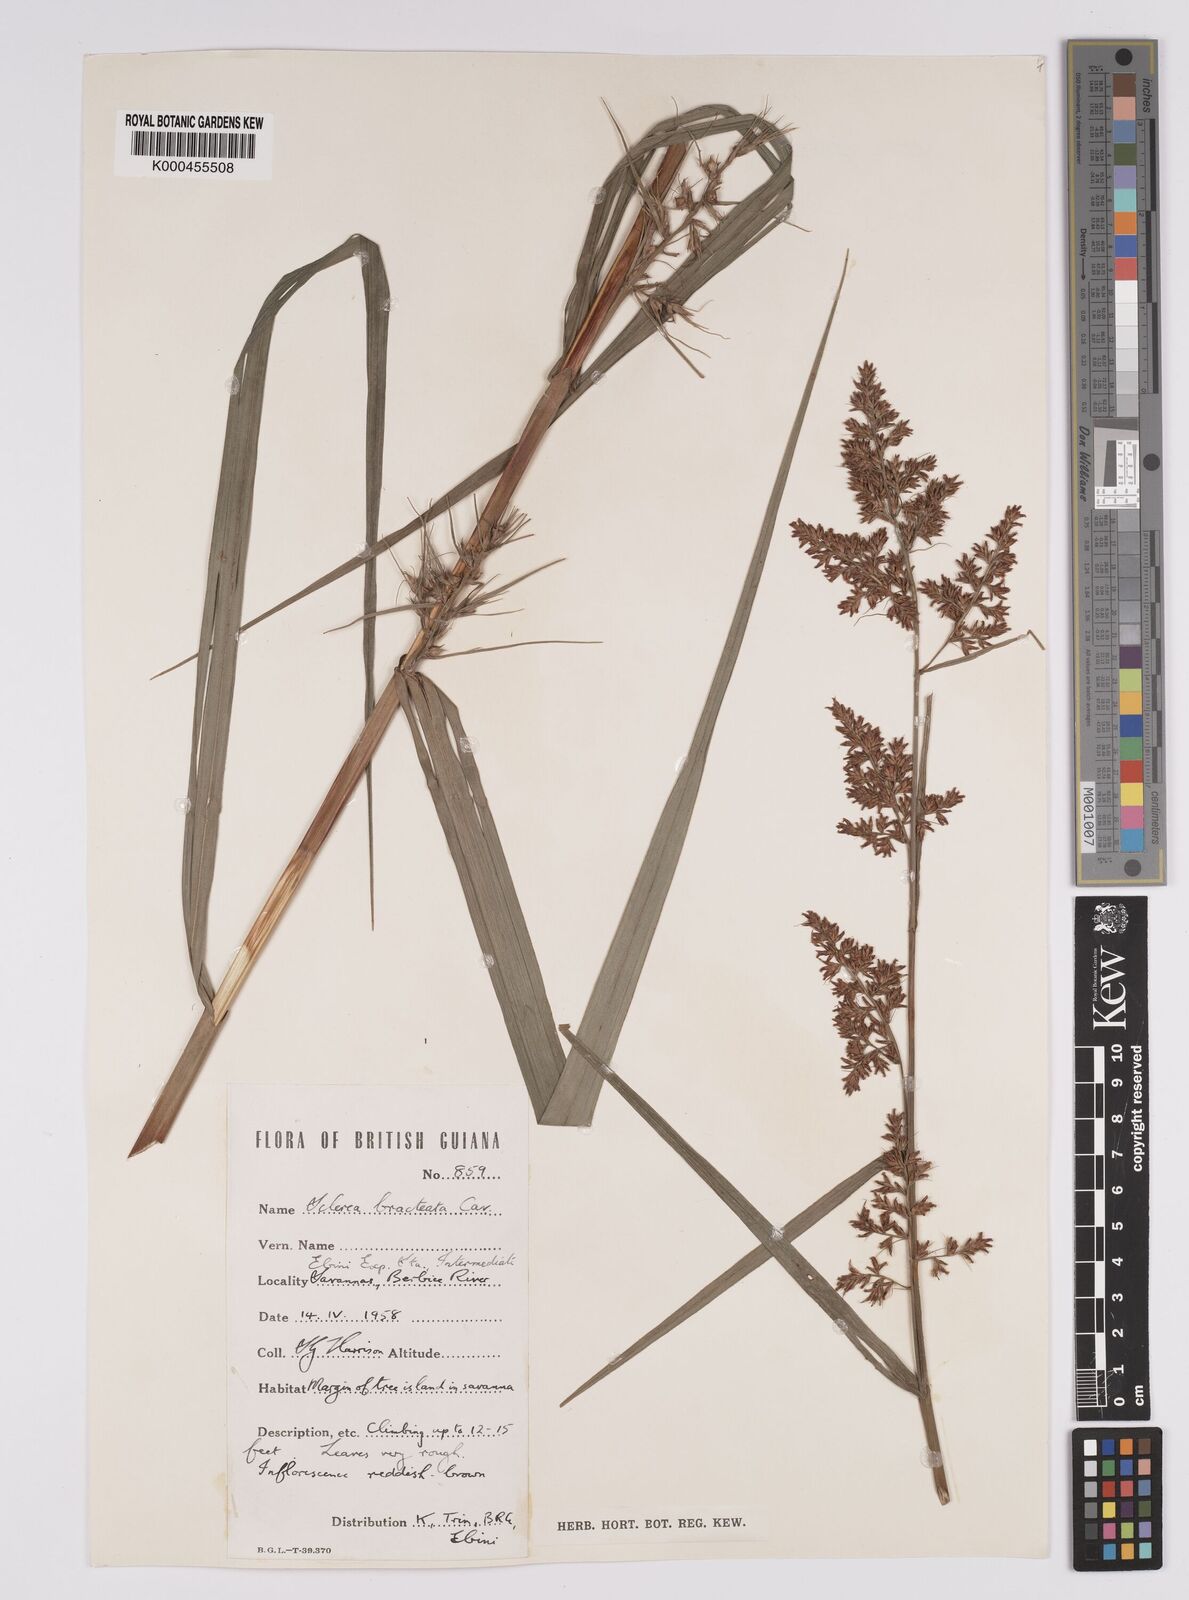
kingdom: Plantae
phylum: Tracheophyta
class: Liliopsida
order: Poales
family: Cyperaceae
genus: Scleria
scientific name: Scleria bracteata
